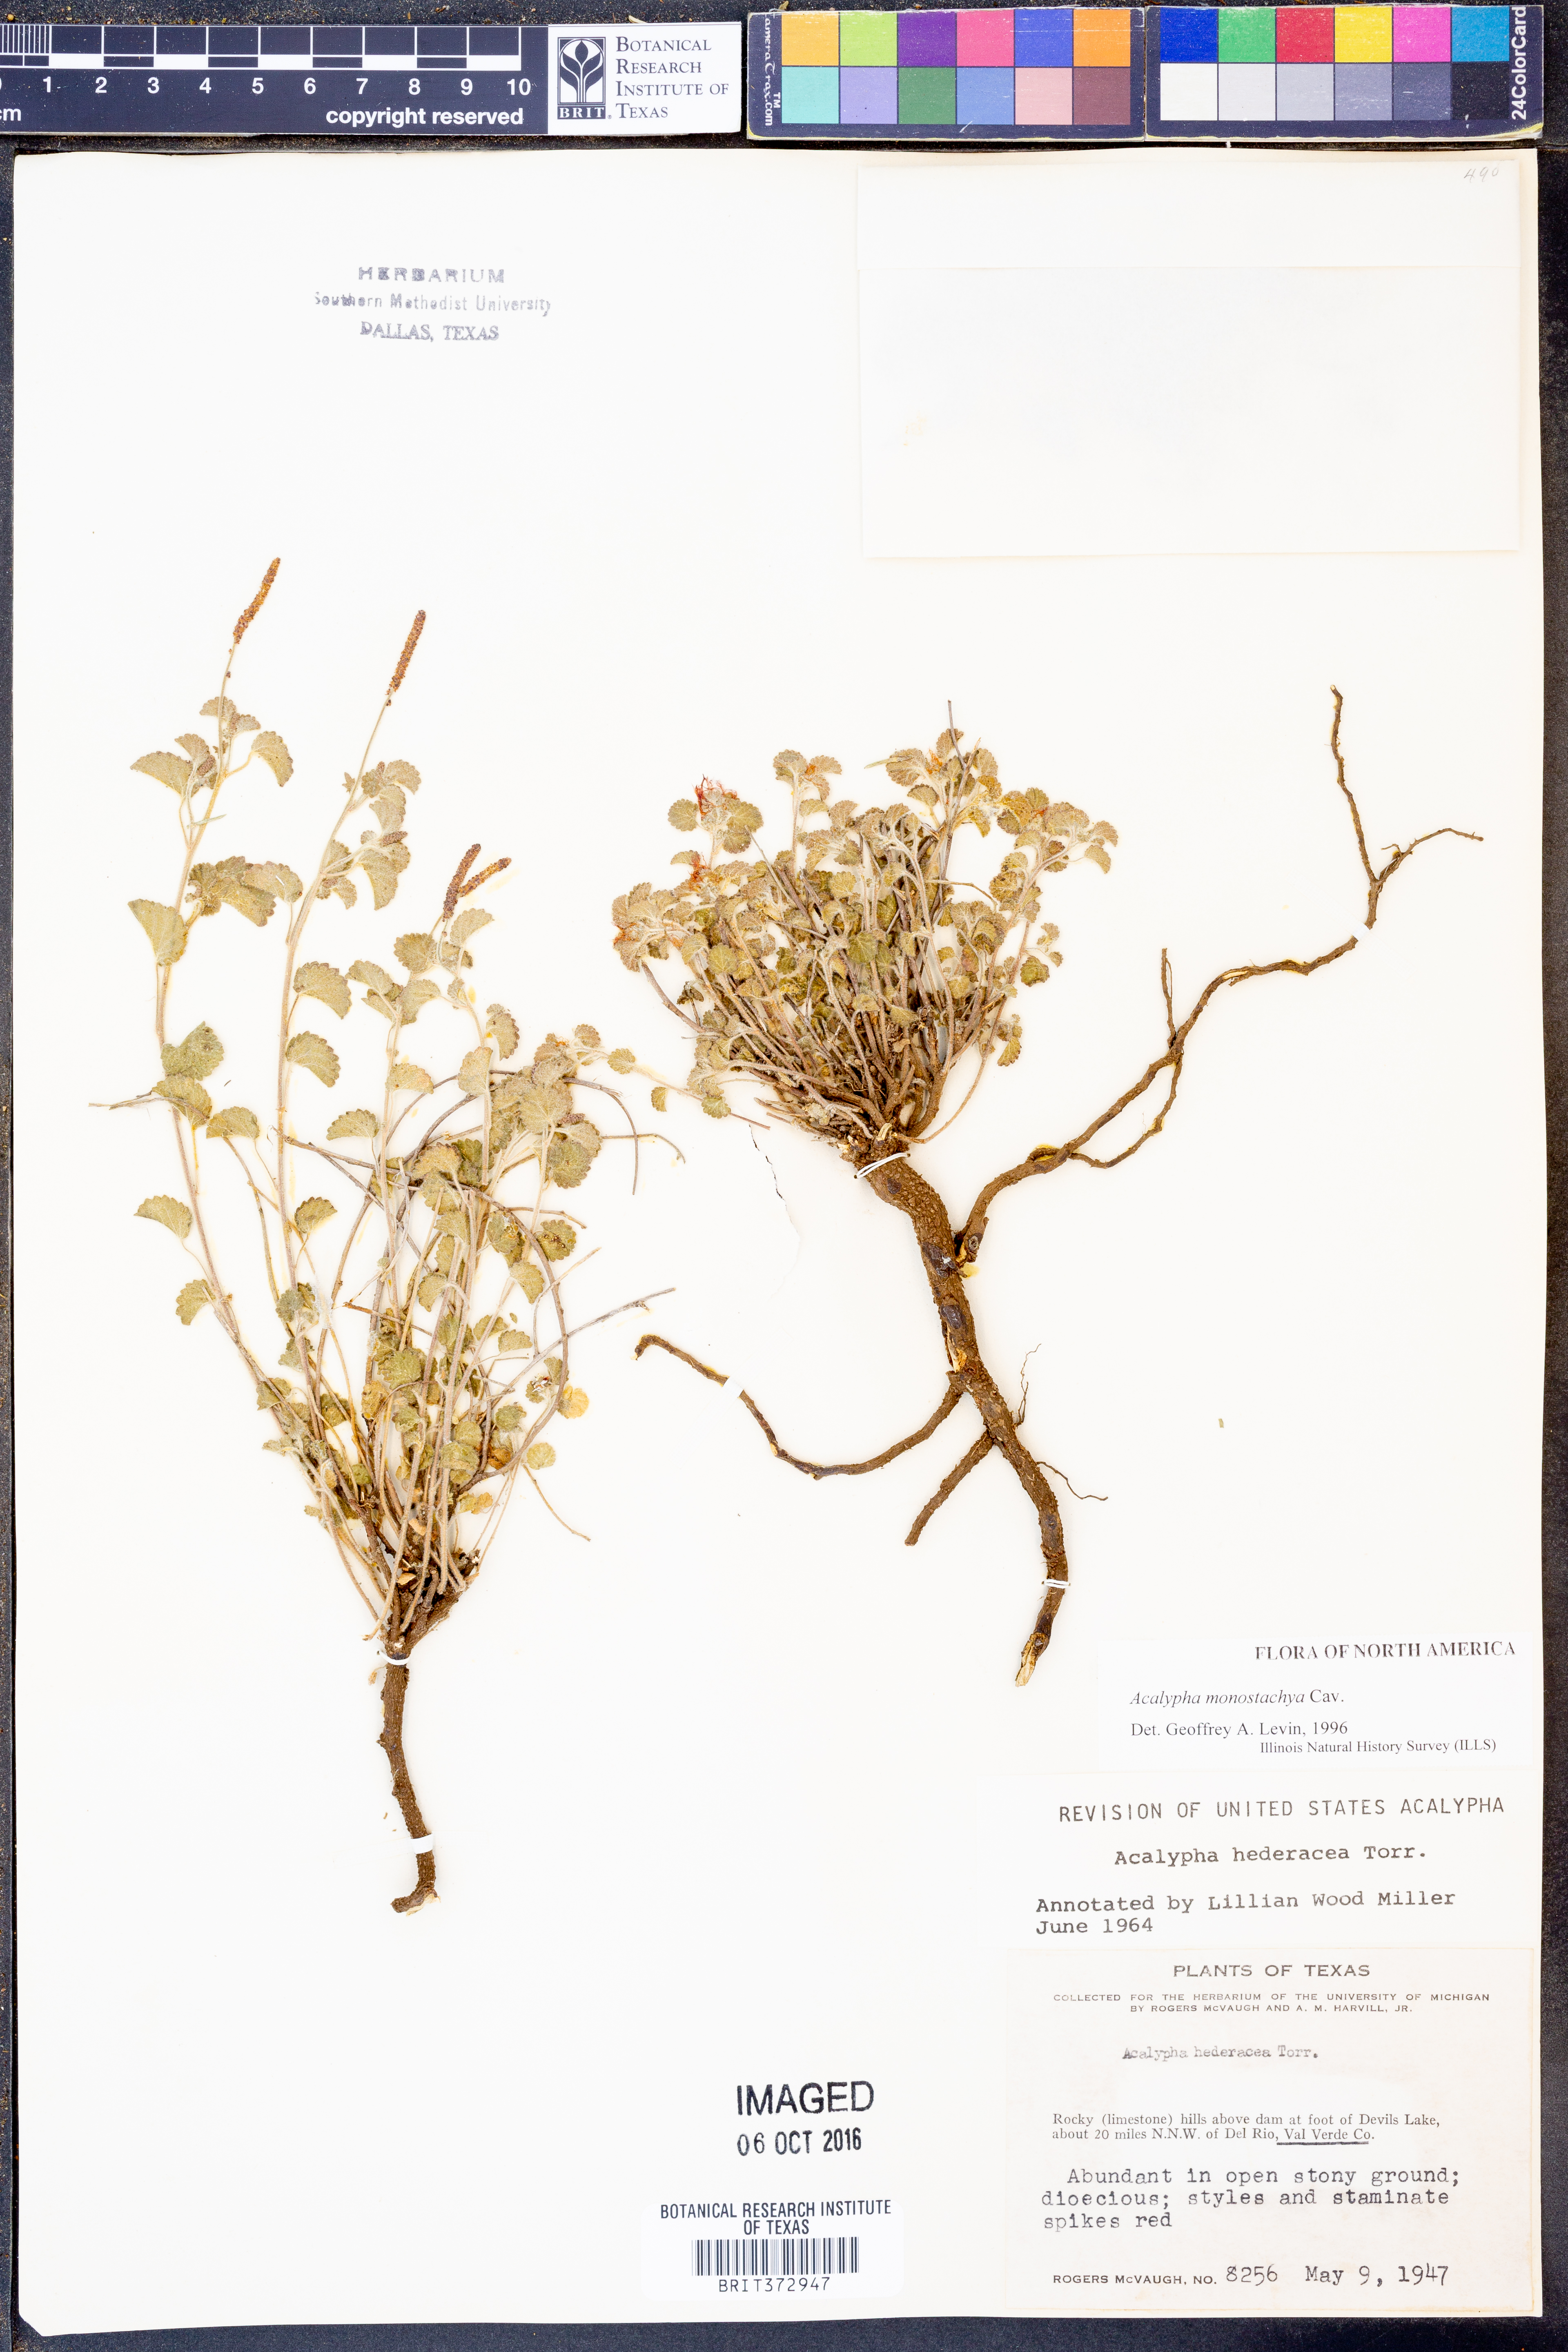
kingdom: Plantae
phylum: Tracheophyta
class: Magnoliopsida
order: Malpighiales
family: Euphorbiaceae
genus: Acalypha
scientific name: Acalypha monostachya
